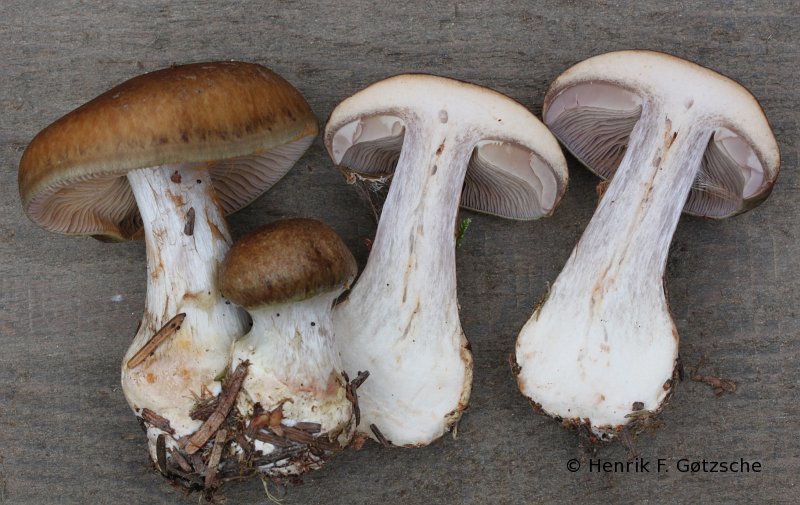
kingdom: Fungi
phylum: Basidiomycota
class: Agaricomycetes
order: Agaricales
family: Cortinariaceae
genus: Thaxterogaster
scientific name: Thaxterogaster sphagnophilus
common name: vandplettet slørhat
